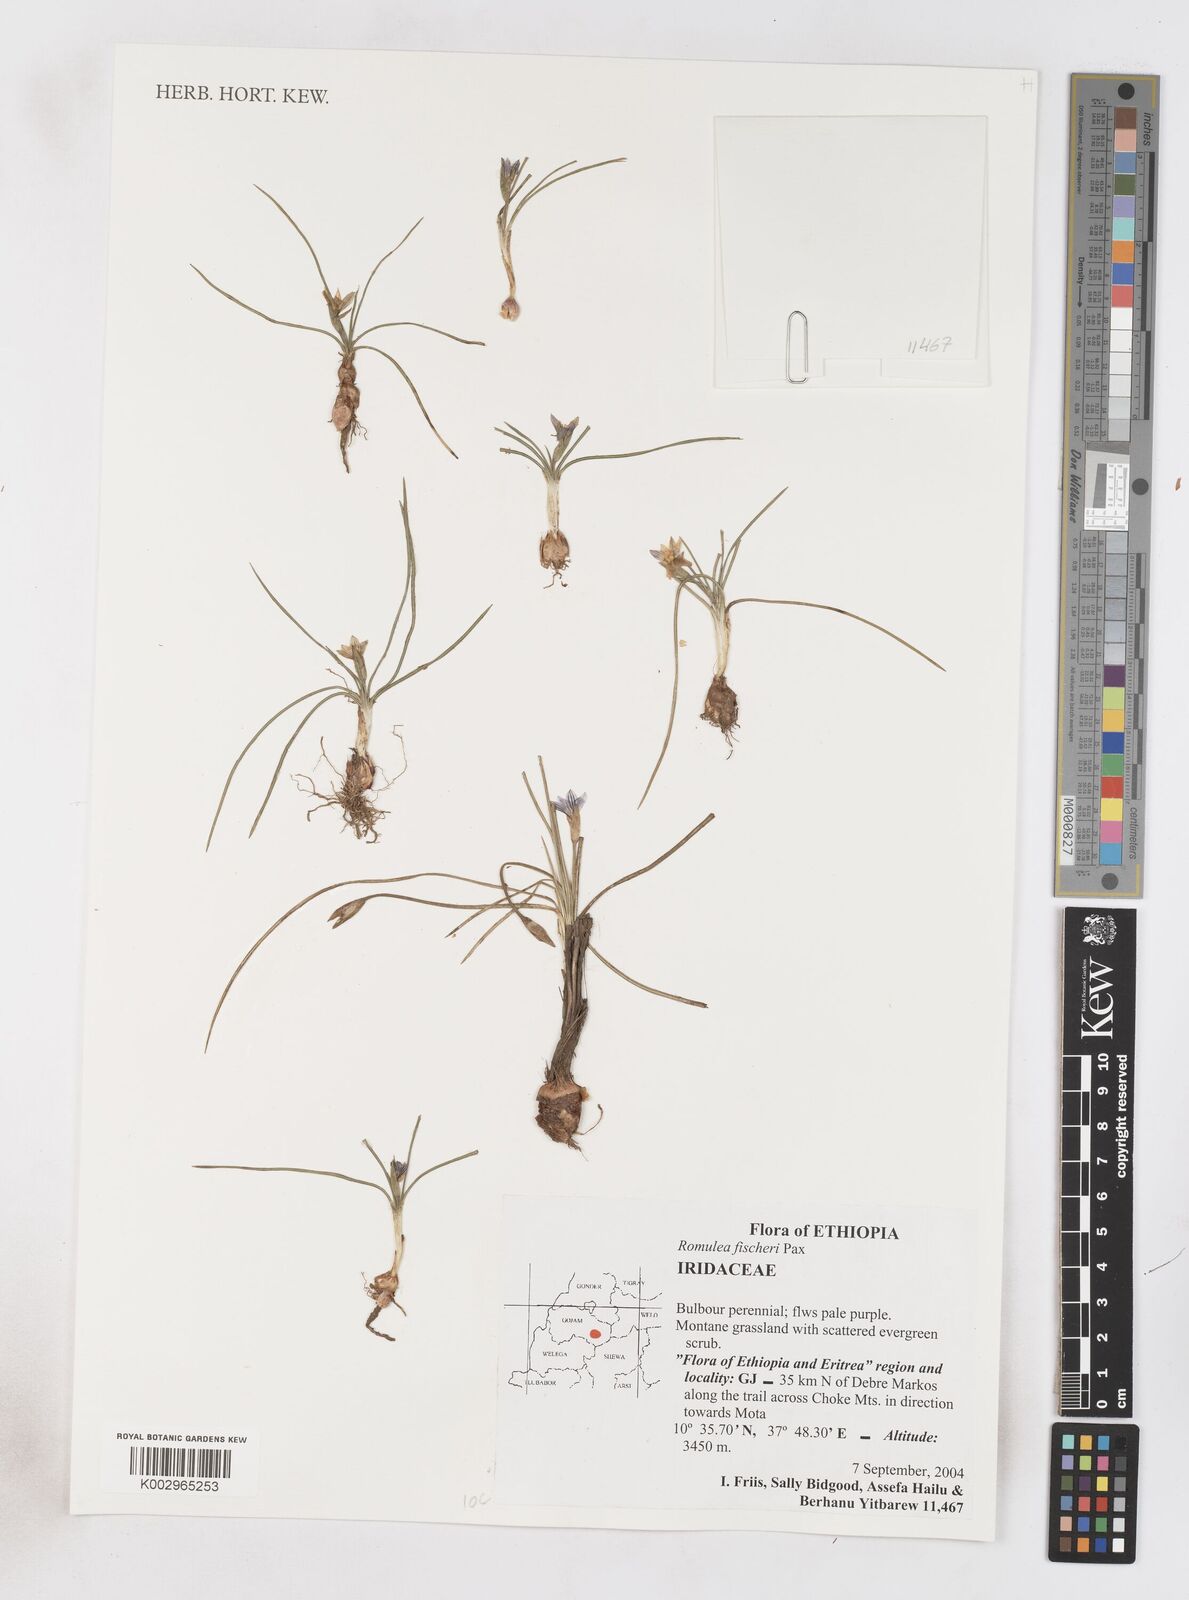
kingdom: Plantae
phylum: Tracheophyta
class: Liliopsida
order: Asparagales
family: Iridaceae
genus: Romulea
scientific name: Romulea fischeri
